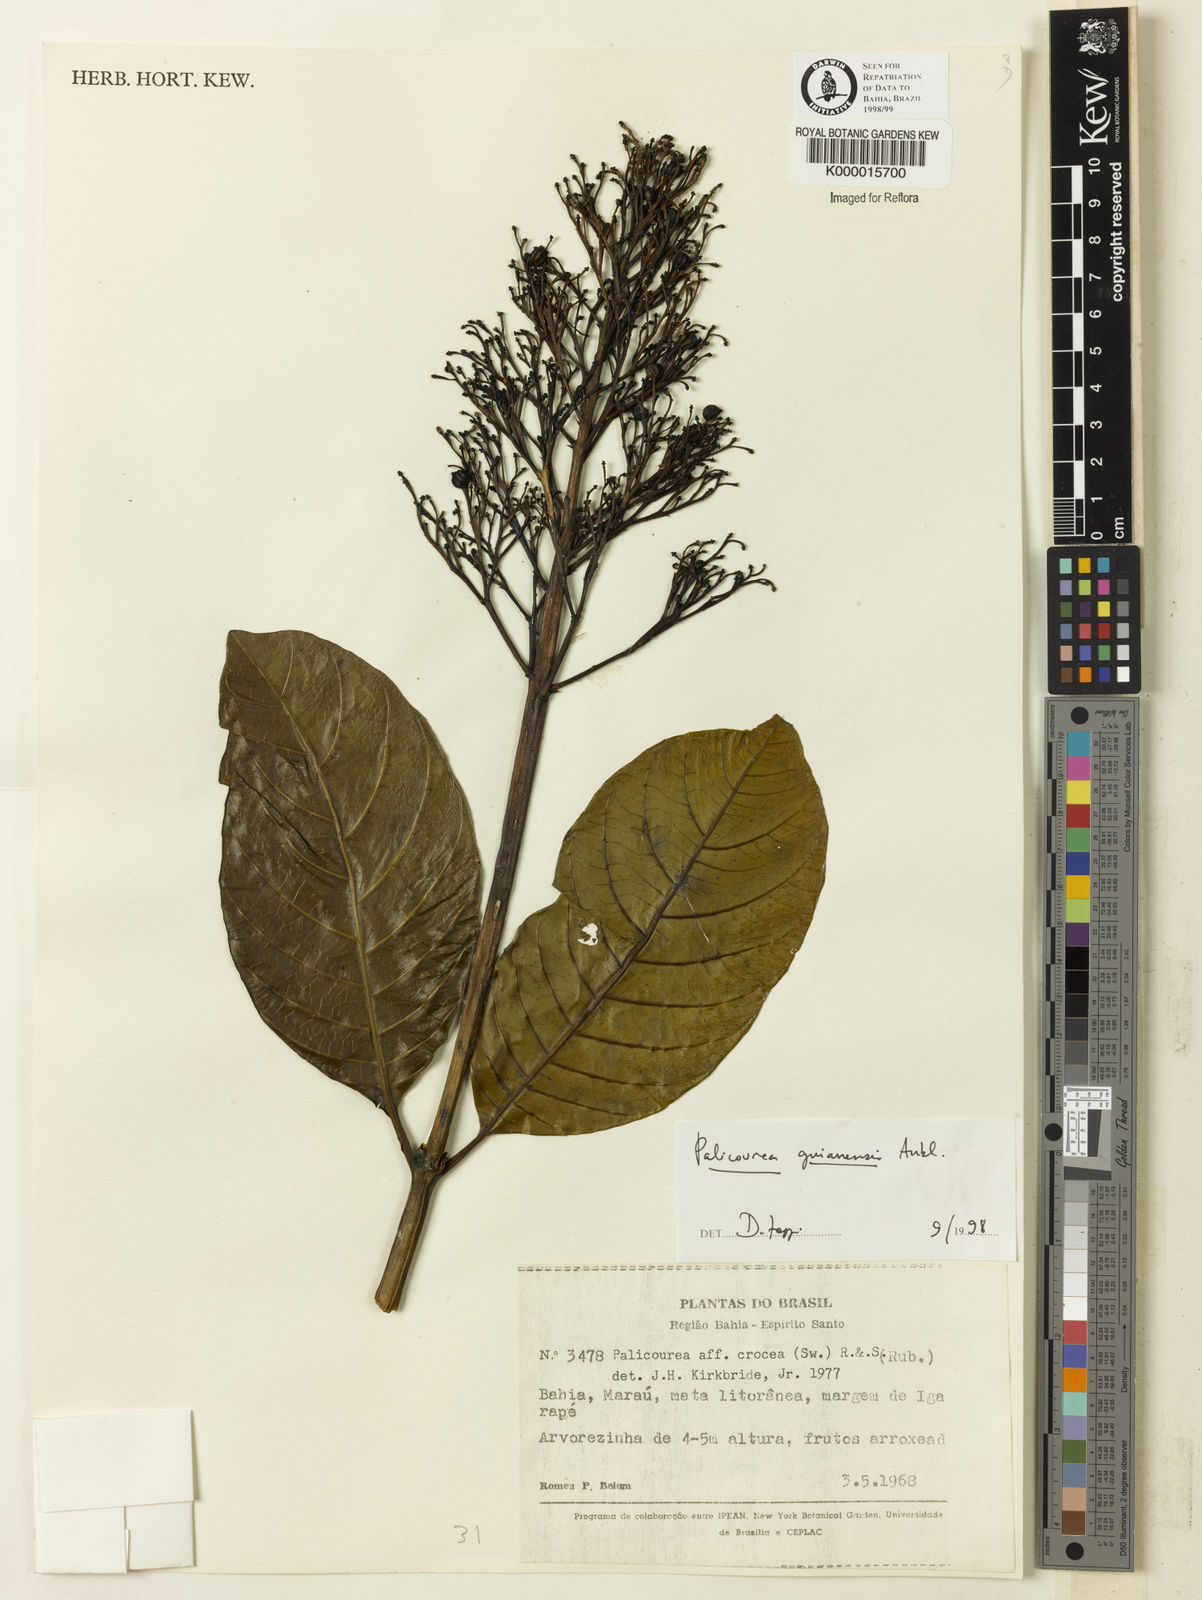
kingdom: Plantae
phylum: Tracheophyta
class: Magnoliopsida
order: Gentianales
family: Rubiaceae
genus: Palicourea
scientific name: Palicourea guianensis
